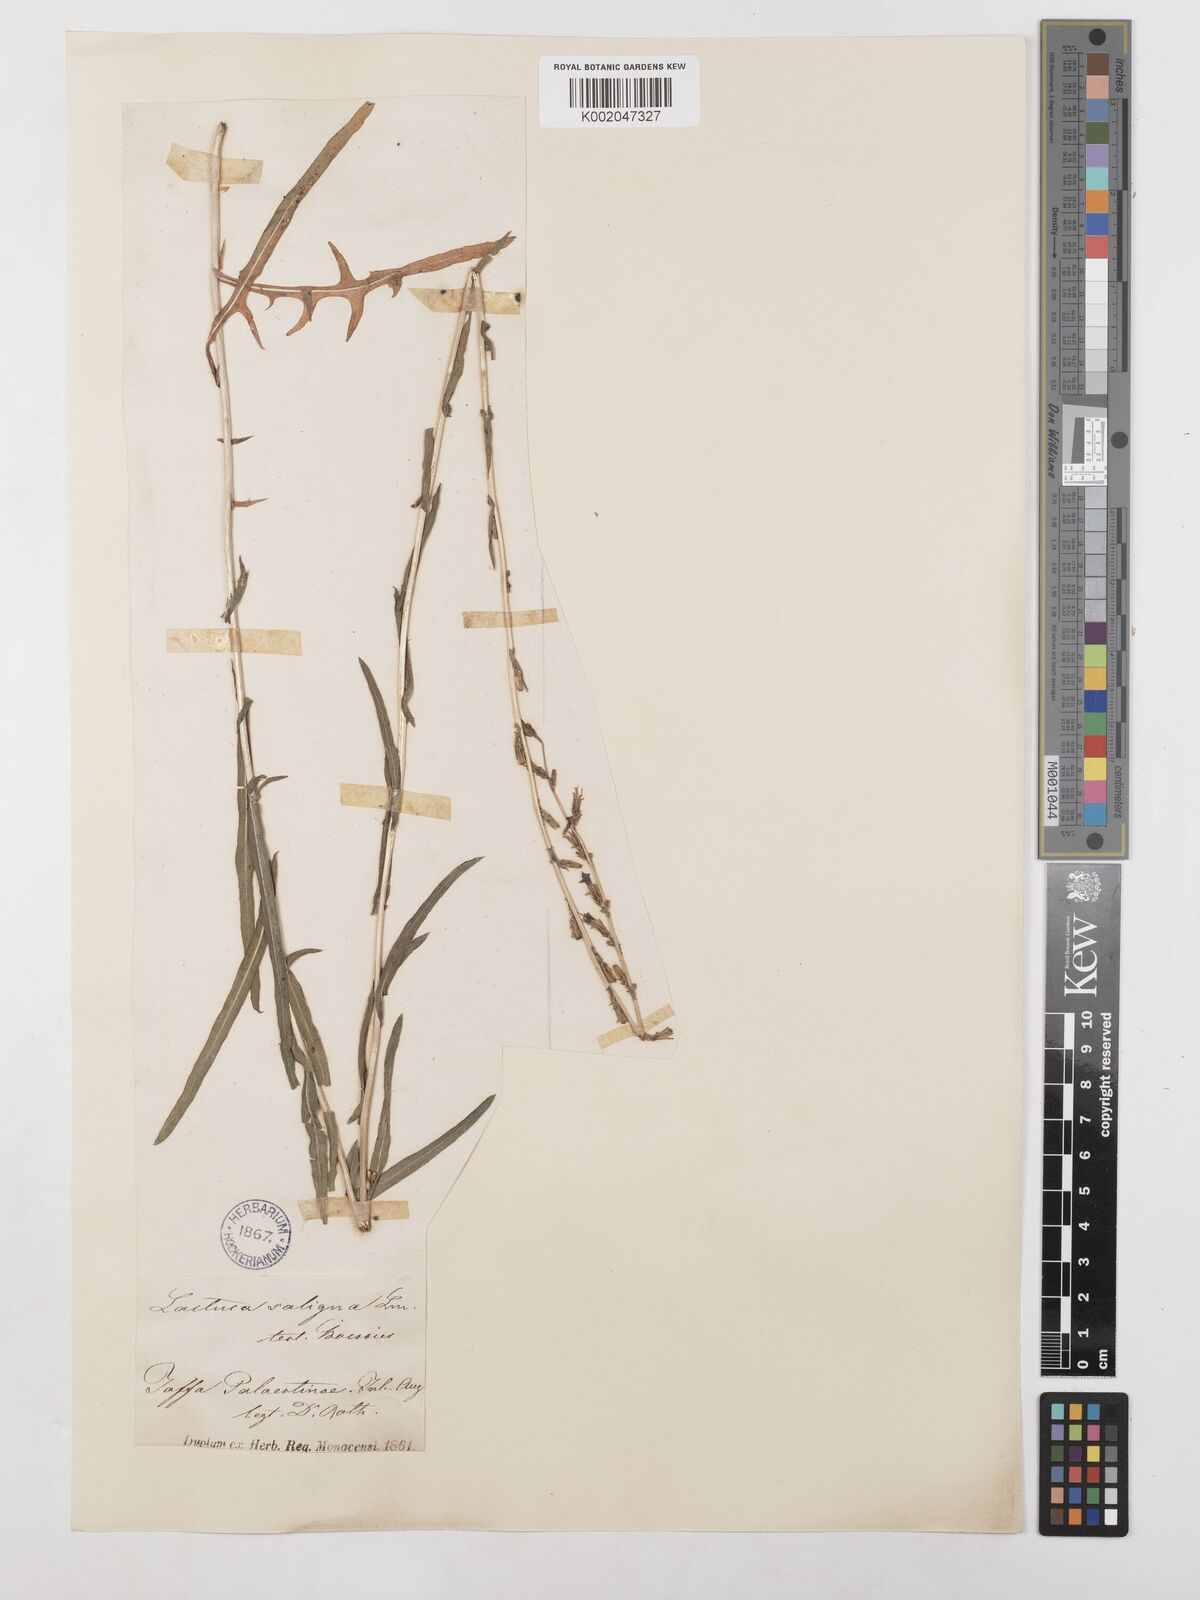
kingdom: Plantae
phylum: Tracheophyta
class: Magnoliopsida
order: Asterales
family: Asteraceae
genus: Lactuca
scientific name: Lactuca saligna
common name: Wild lettuce
